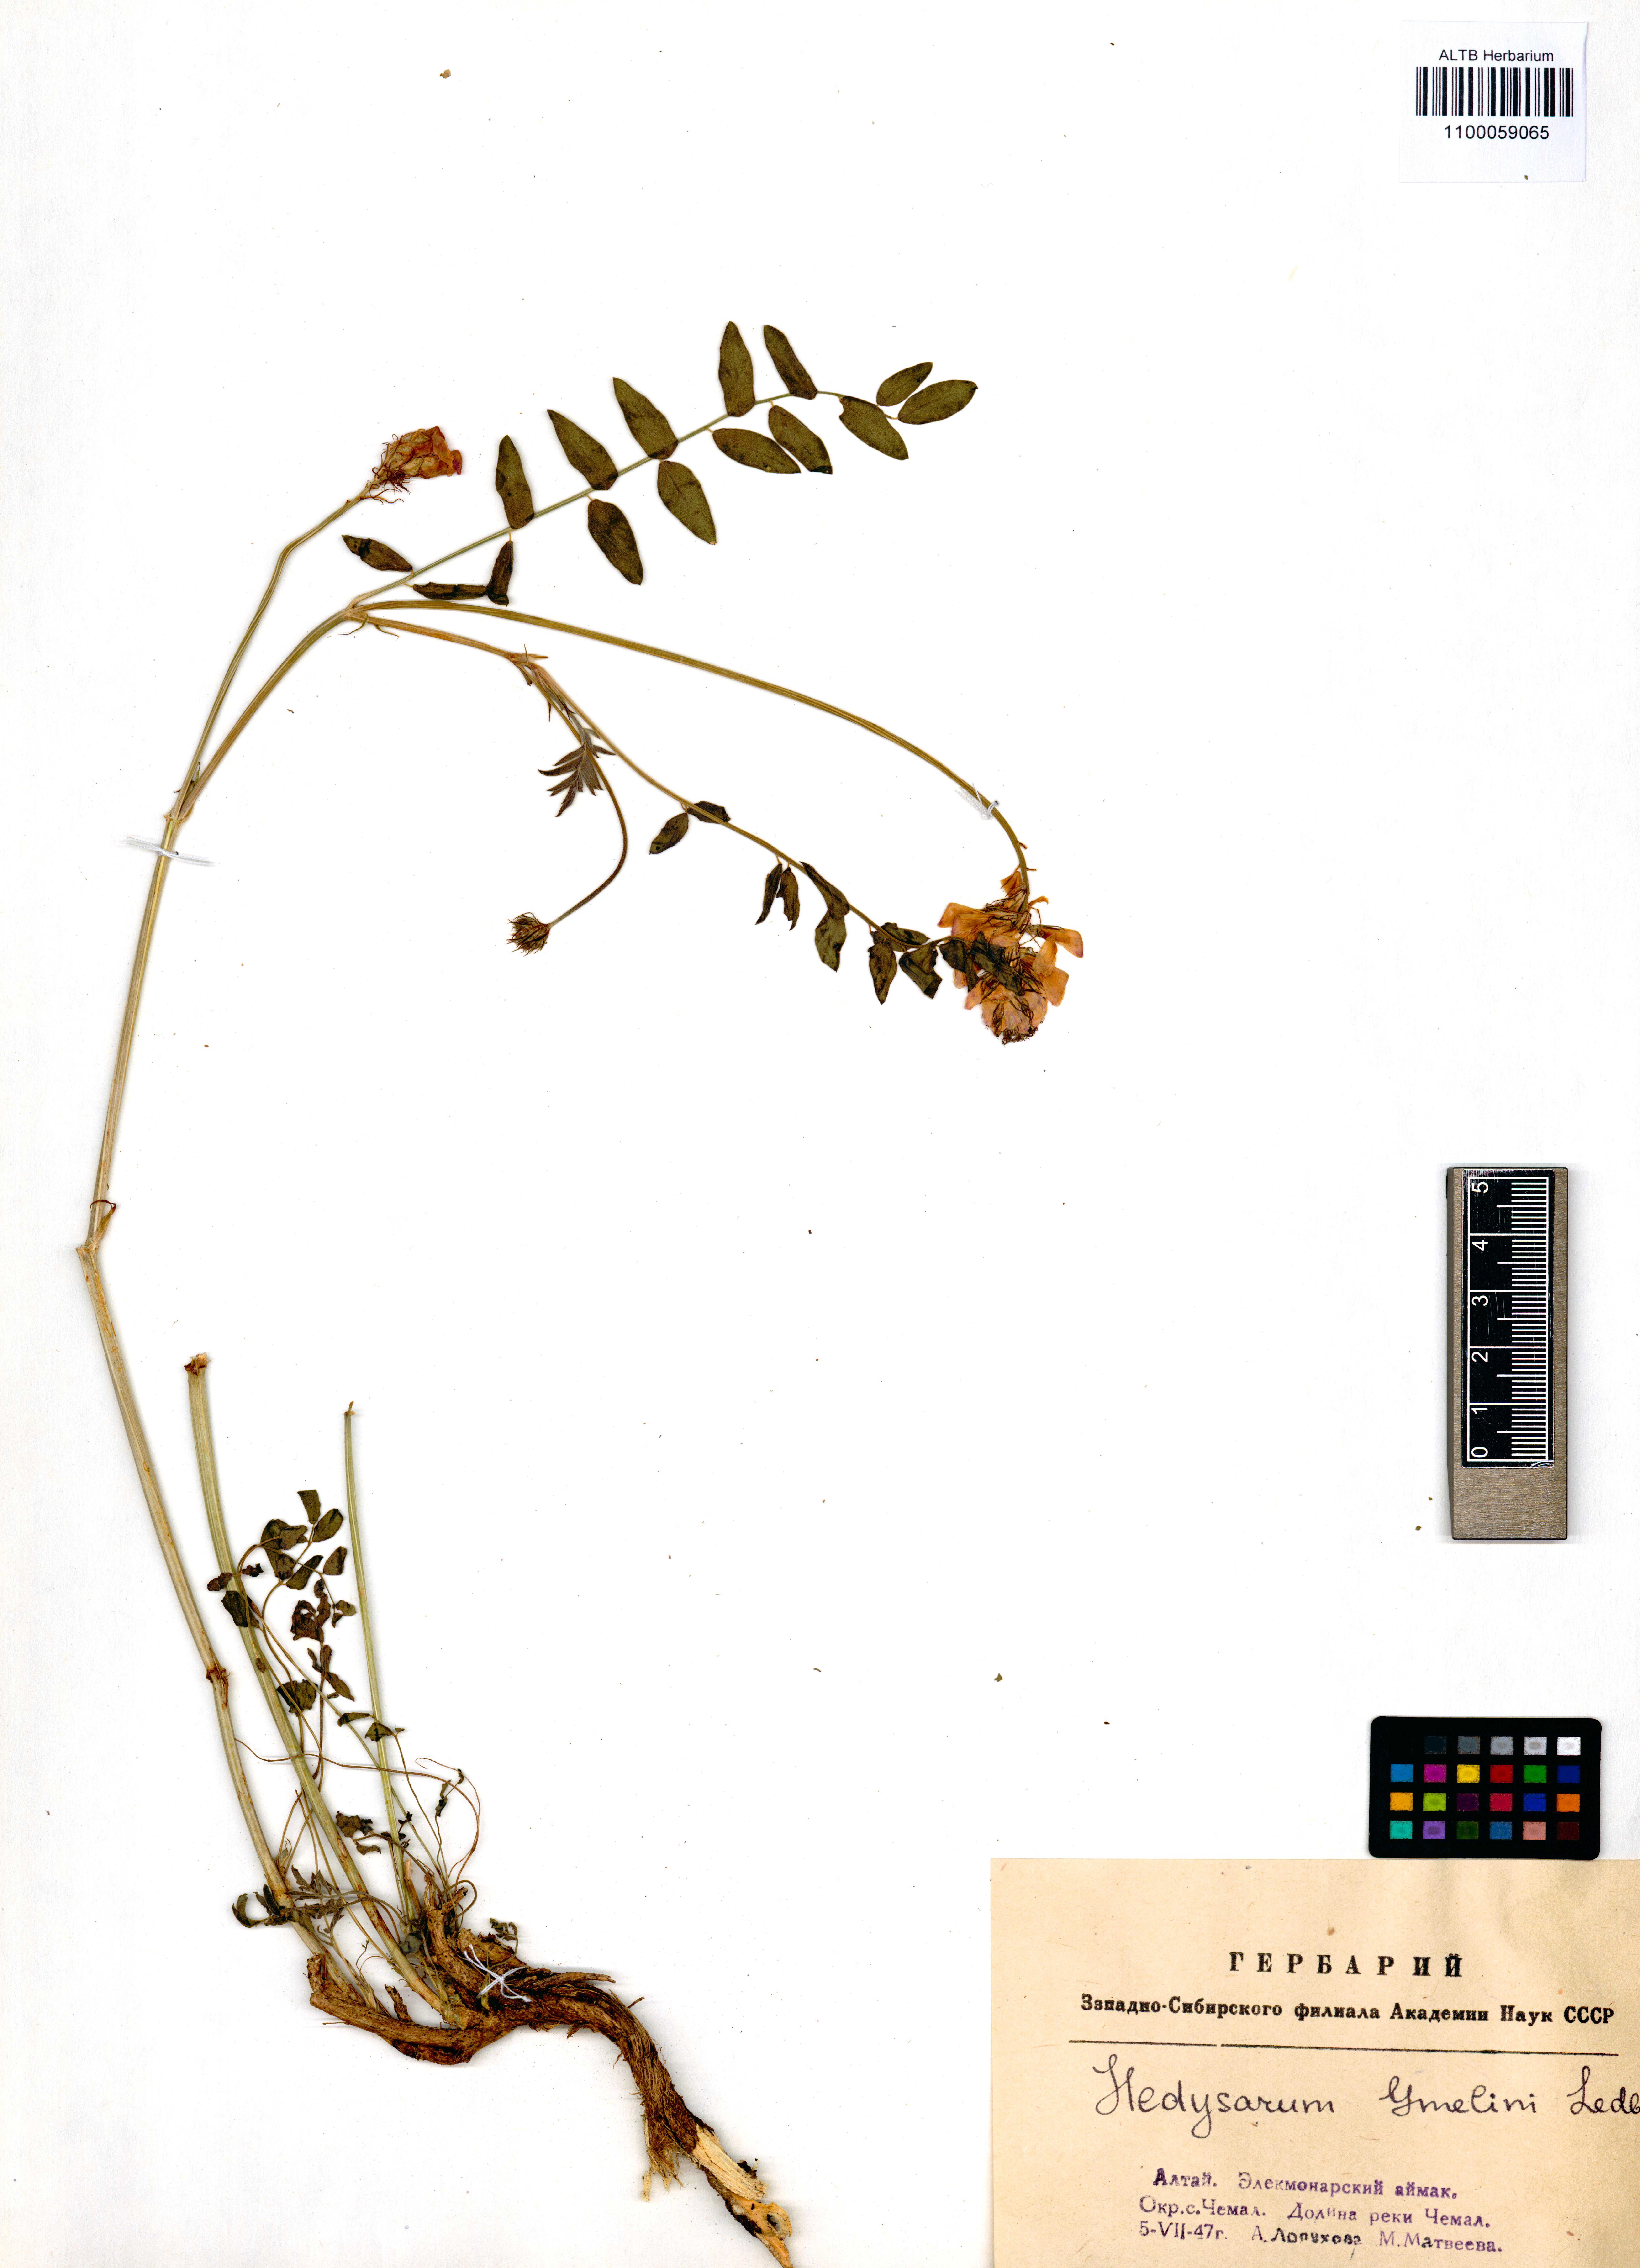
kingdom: Plantae
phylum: Tracheophyta
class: Magnoliopsida
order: Fabales
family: Fabaceae
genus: Hedysarum
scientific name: Hedysarum gmelinii
